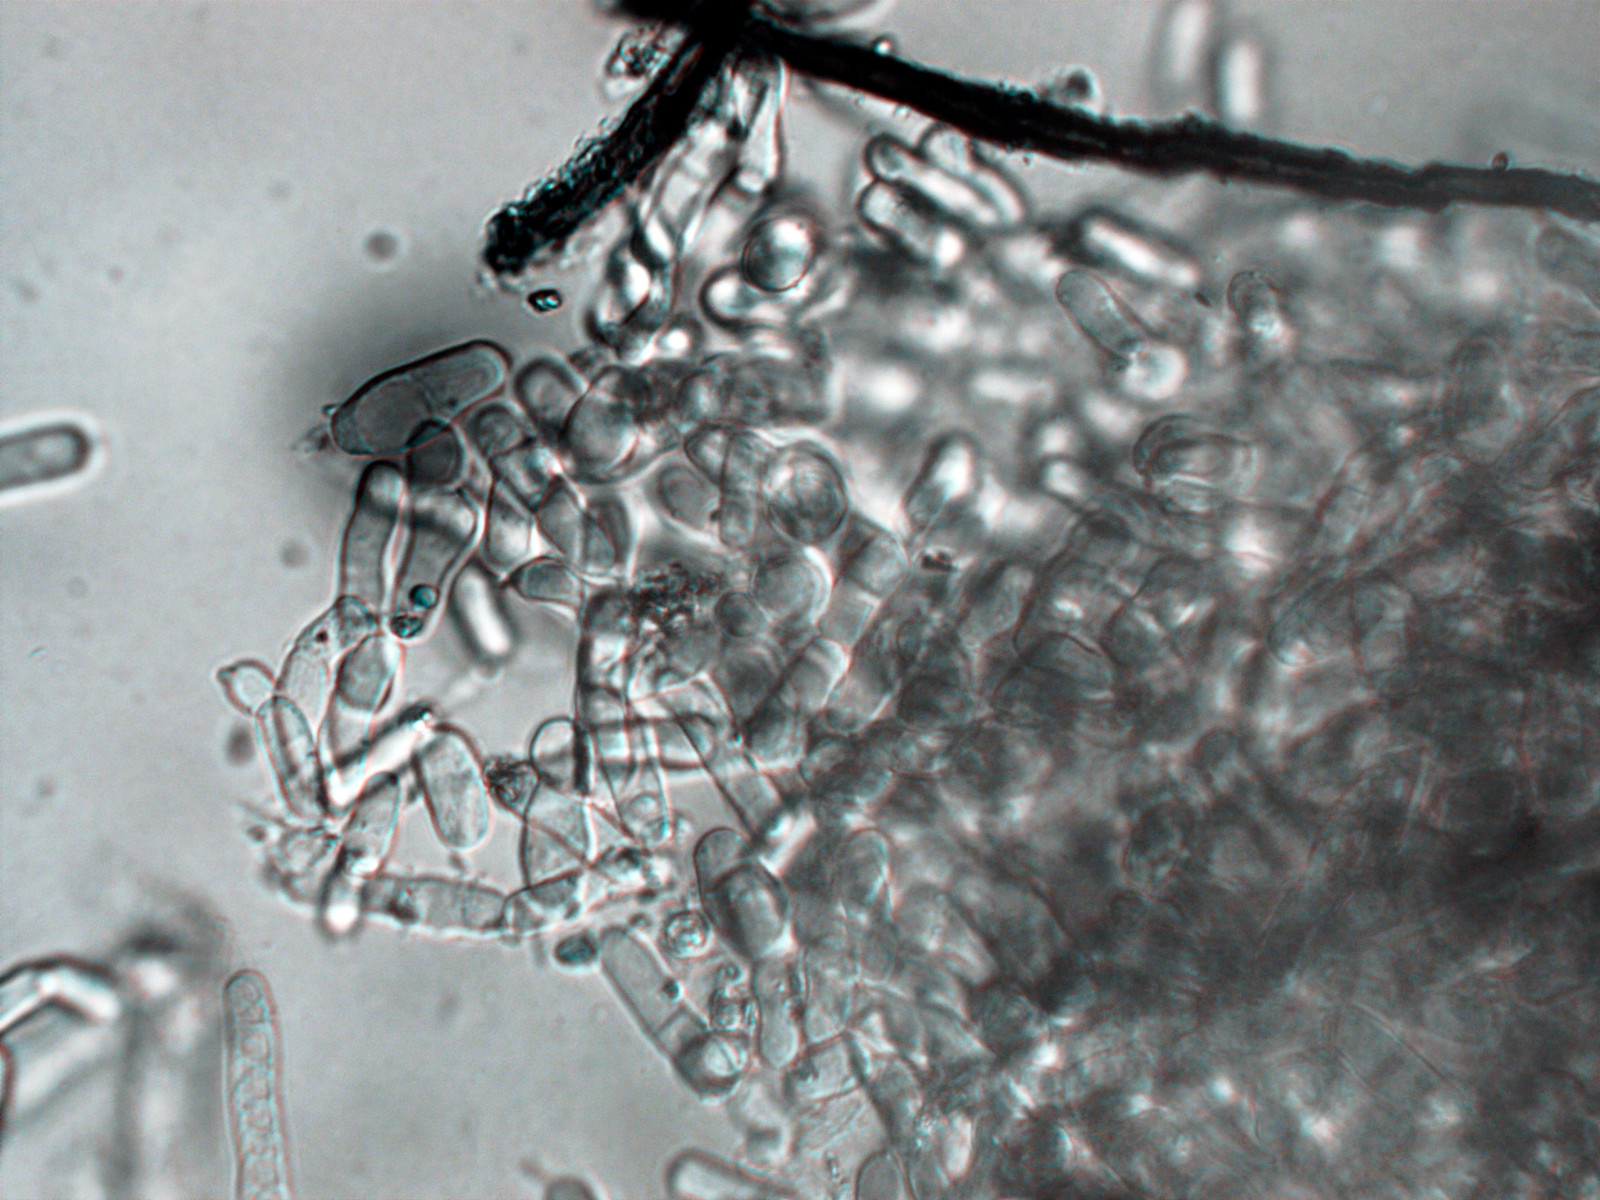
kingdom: Fungi
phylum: Basidiomycota
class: Agaricomycetes
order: Corticiales
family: Corticiaceae
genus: Laetisaria
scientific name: Laetisaria fuciformis
